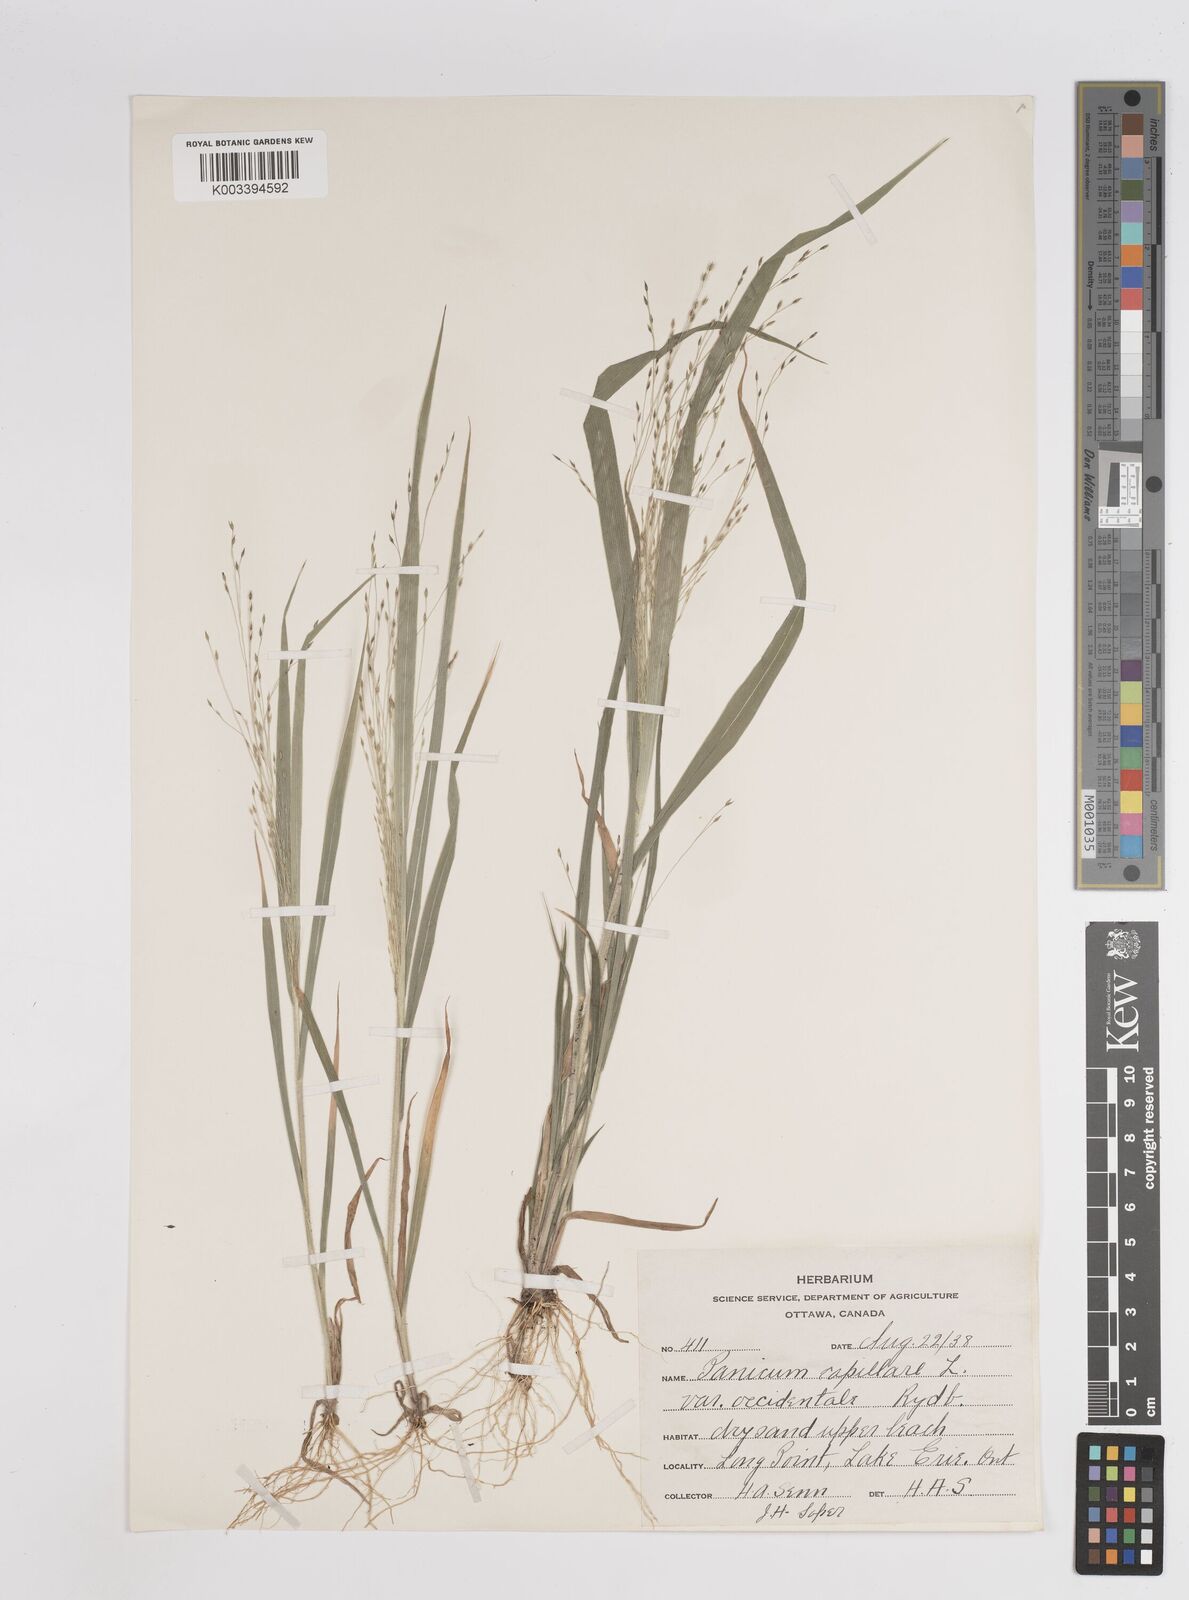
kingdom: Plantae
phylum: Tracheophyta
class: Liliopsida
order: Poales
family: Poaceae
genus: Panicum
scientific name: Panicum capillare
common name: Witch-grass
